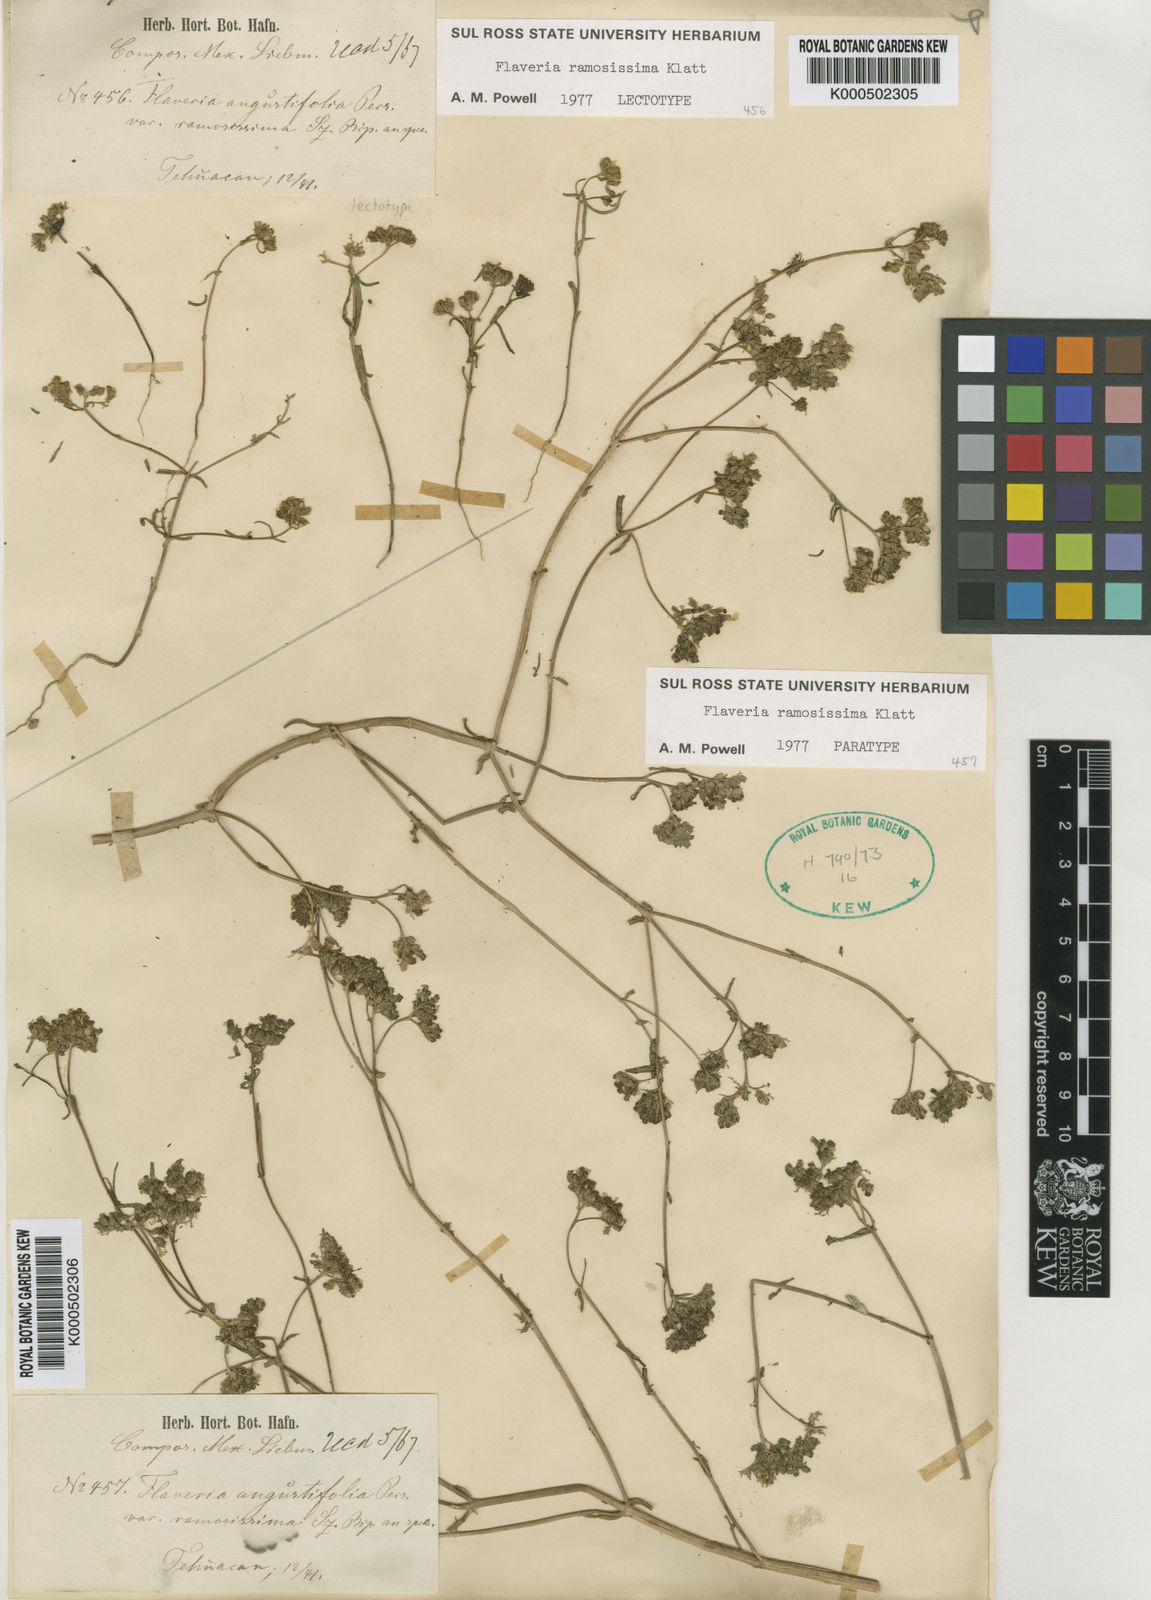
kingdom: Plantae
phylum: Tracheophyta
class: Magnoliopsida
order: Asterales
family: Asteraceae
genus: Flaveria
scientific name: Flaveria ramosissima
